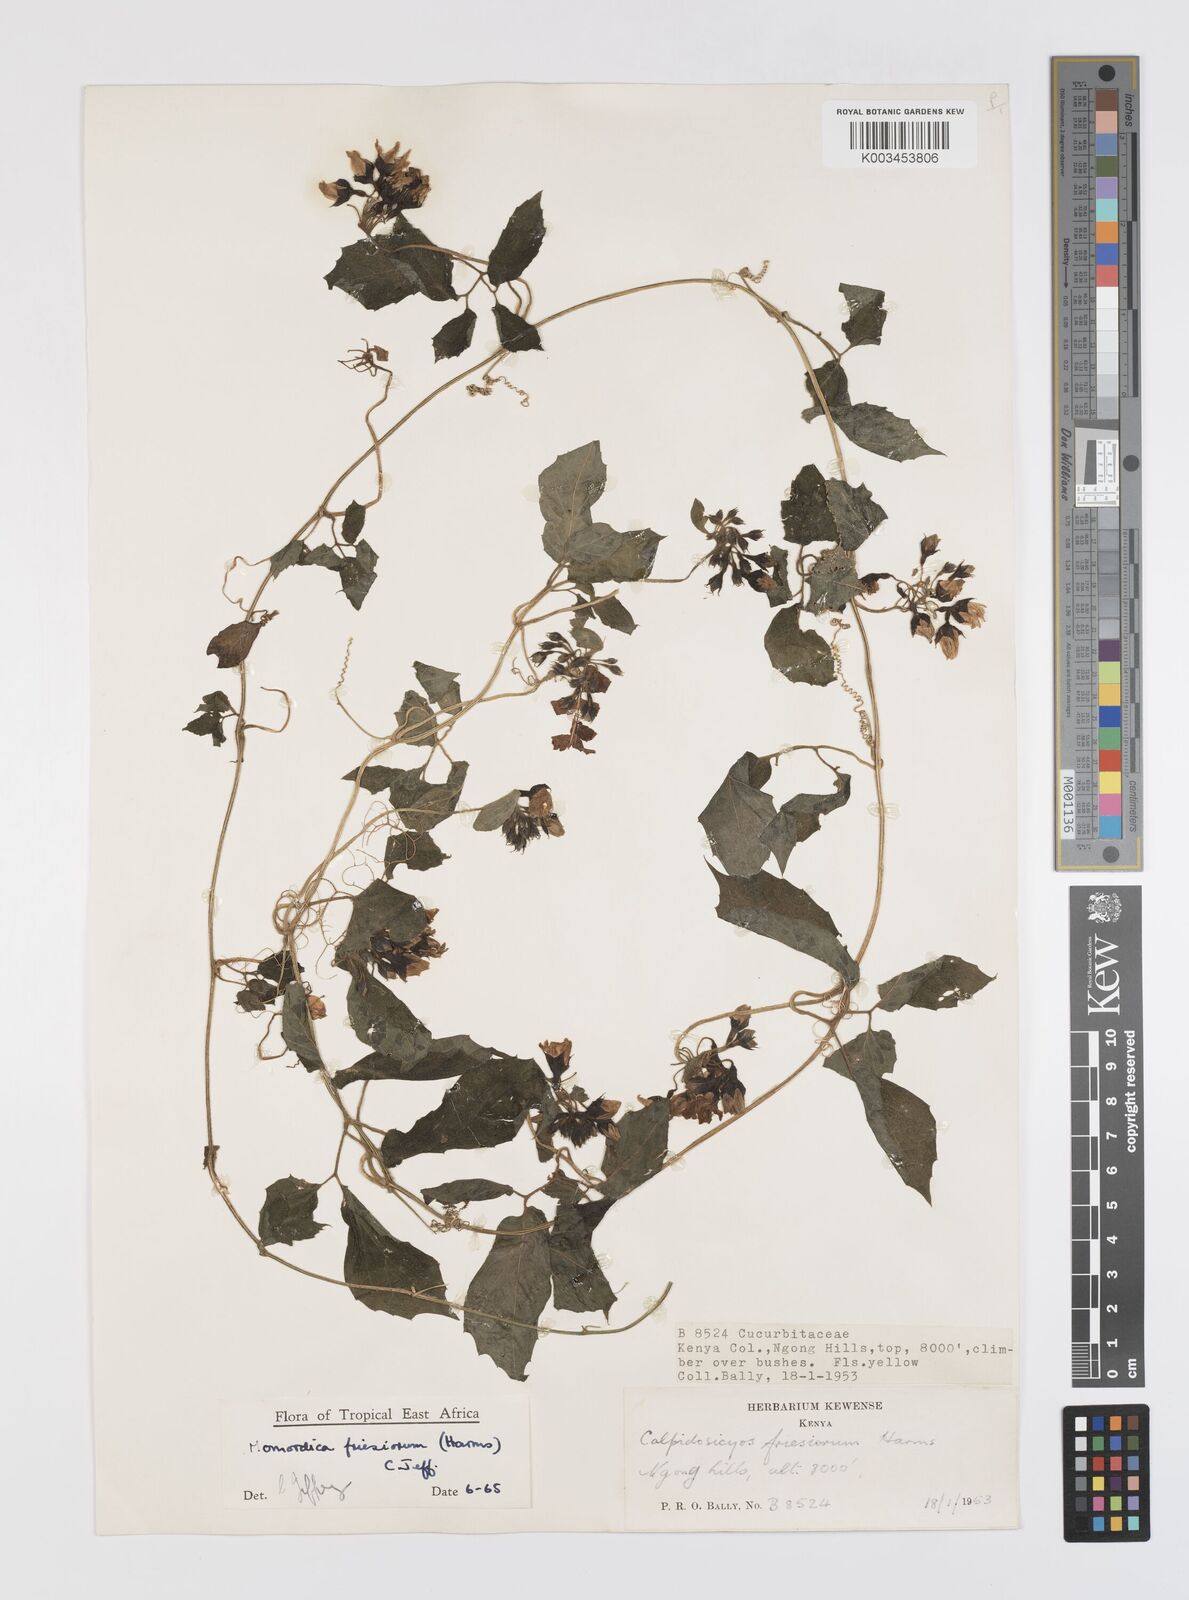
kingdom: Plantae
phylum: Tracheophyta
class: Magnoliopsida
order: Cucurbitales
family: Cucurbitaceae
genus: Momordica
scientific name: Momordica friesiorum
